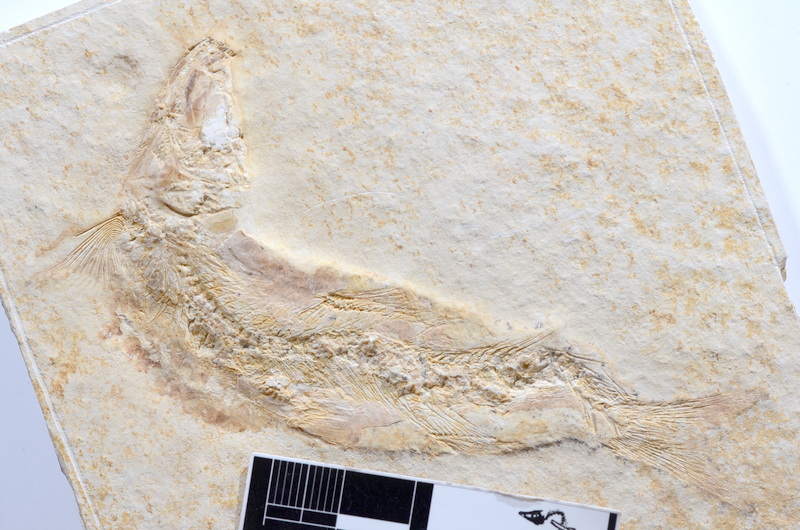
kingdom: Animalia
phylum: Chordata
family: Ascalaboidae
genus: Tharsis
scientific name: Tharsis dubius
